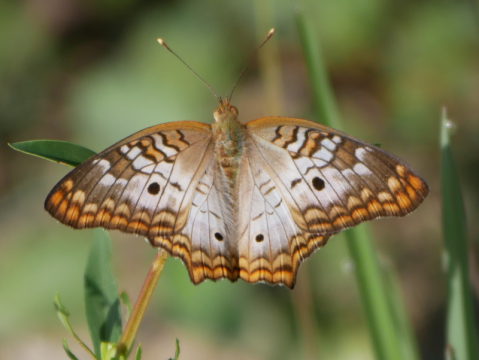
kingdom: Animalia
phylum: Arthropoda
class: Insecta
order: Lepidoptera
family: Nymphalidae
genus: Anartia
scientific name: Anartia jatrophae
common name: White Peacock
